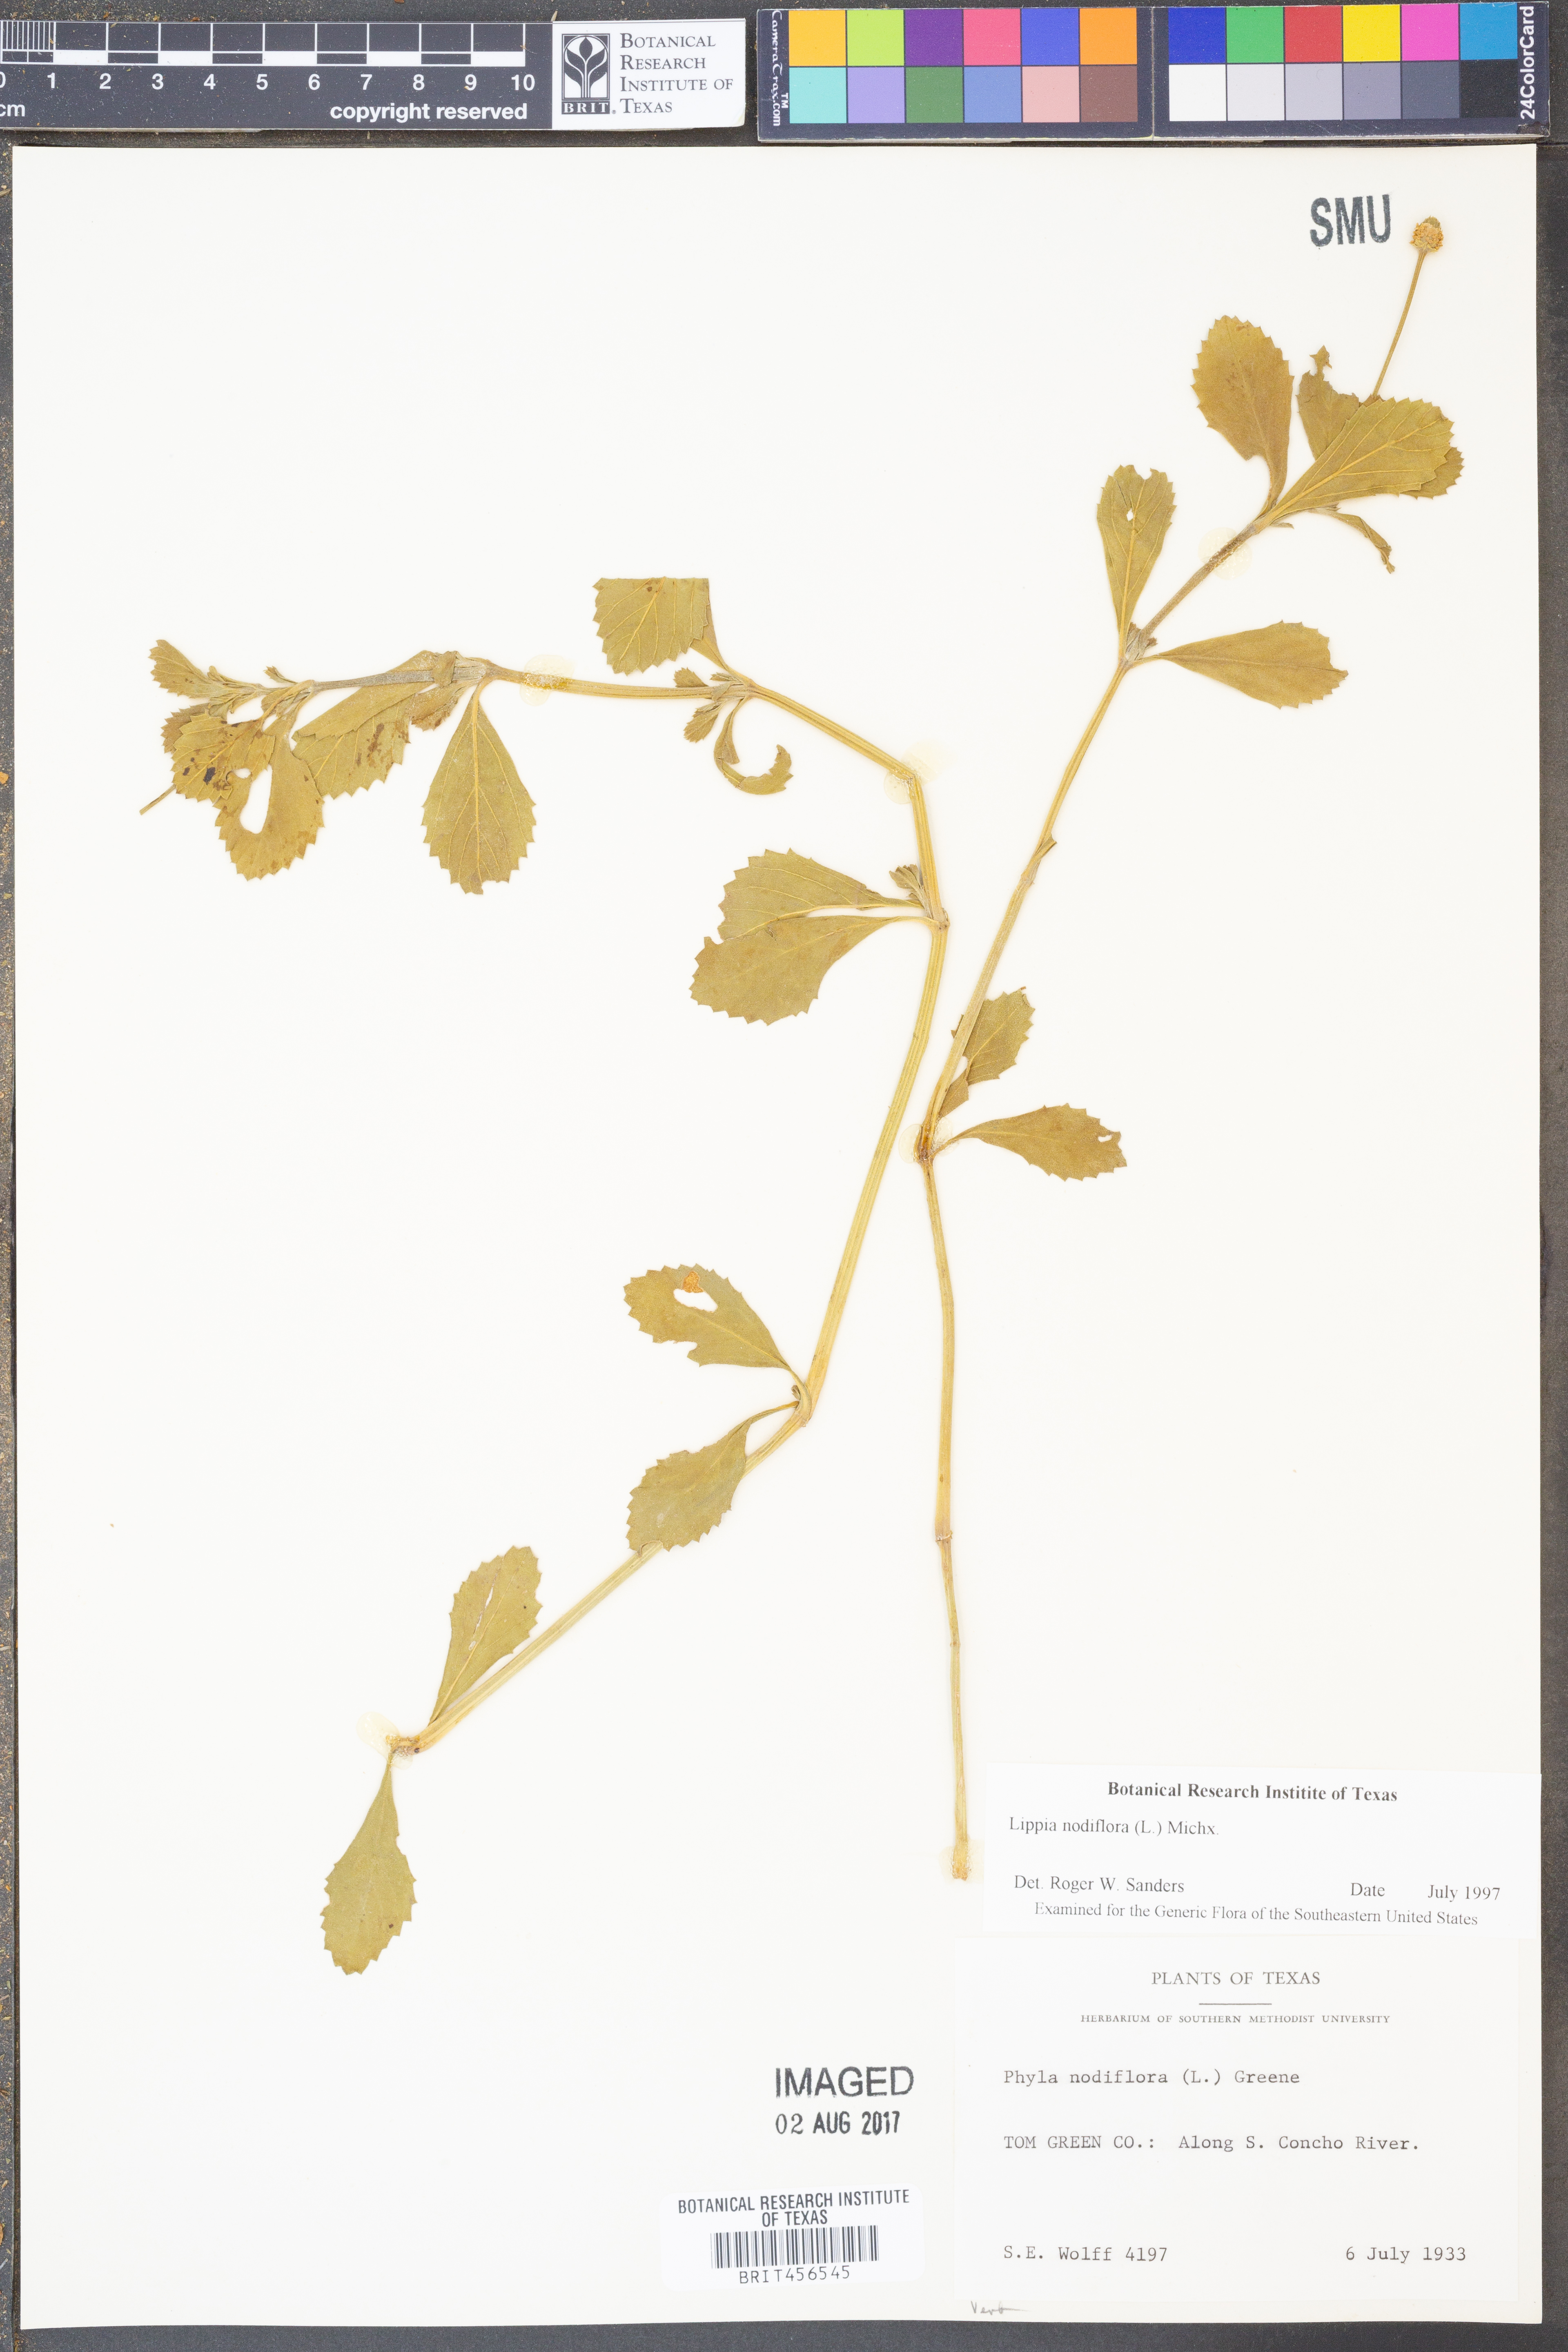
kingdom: Plantae
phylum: Tracheophyta
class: Magnoliopsida
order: Lamiales
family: Verbenaceae
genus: Phyla
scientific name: Phyla nodiflora
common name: Frogfruit
